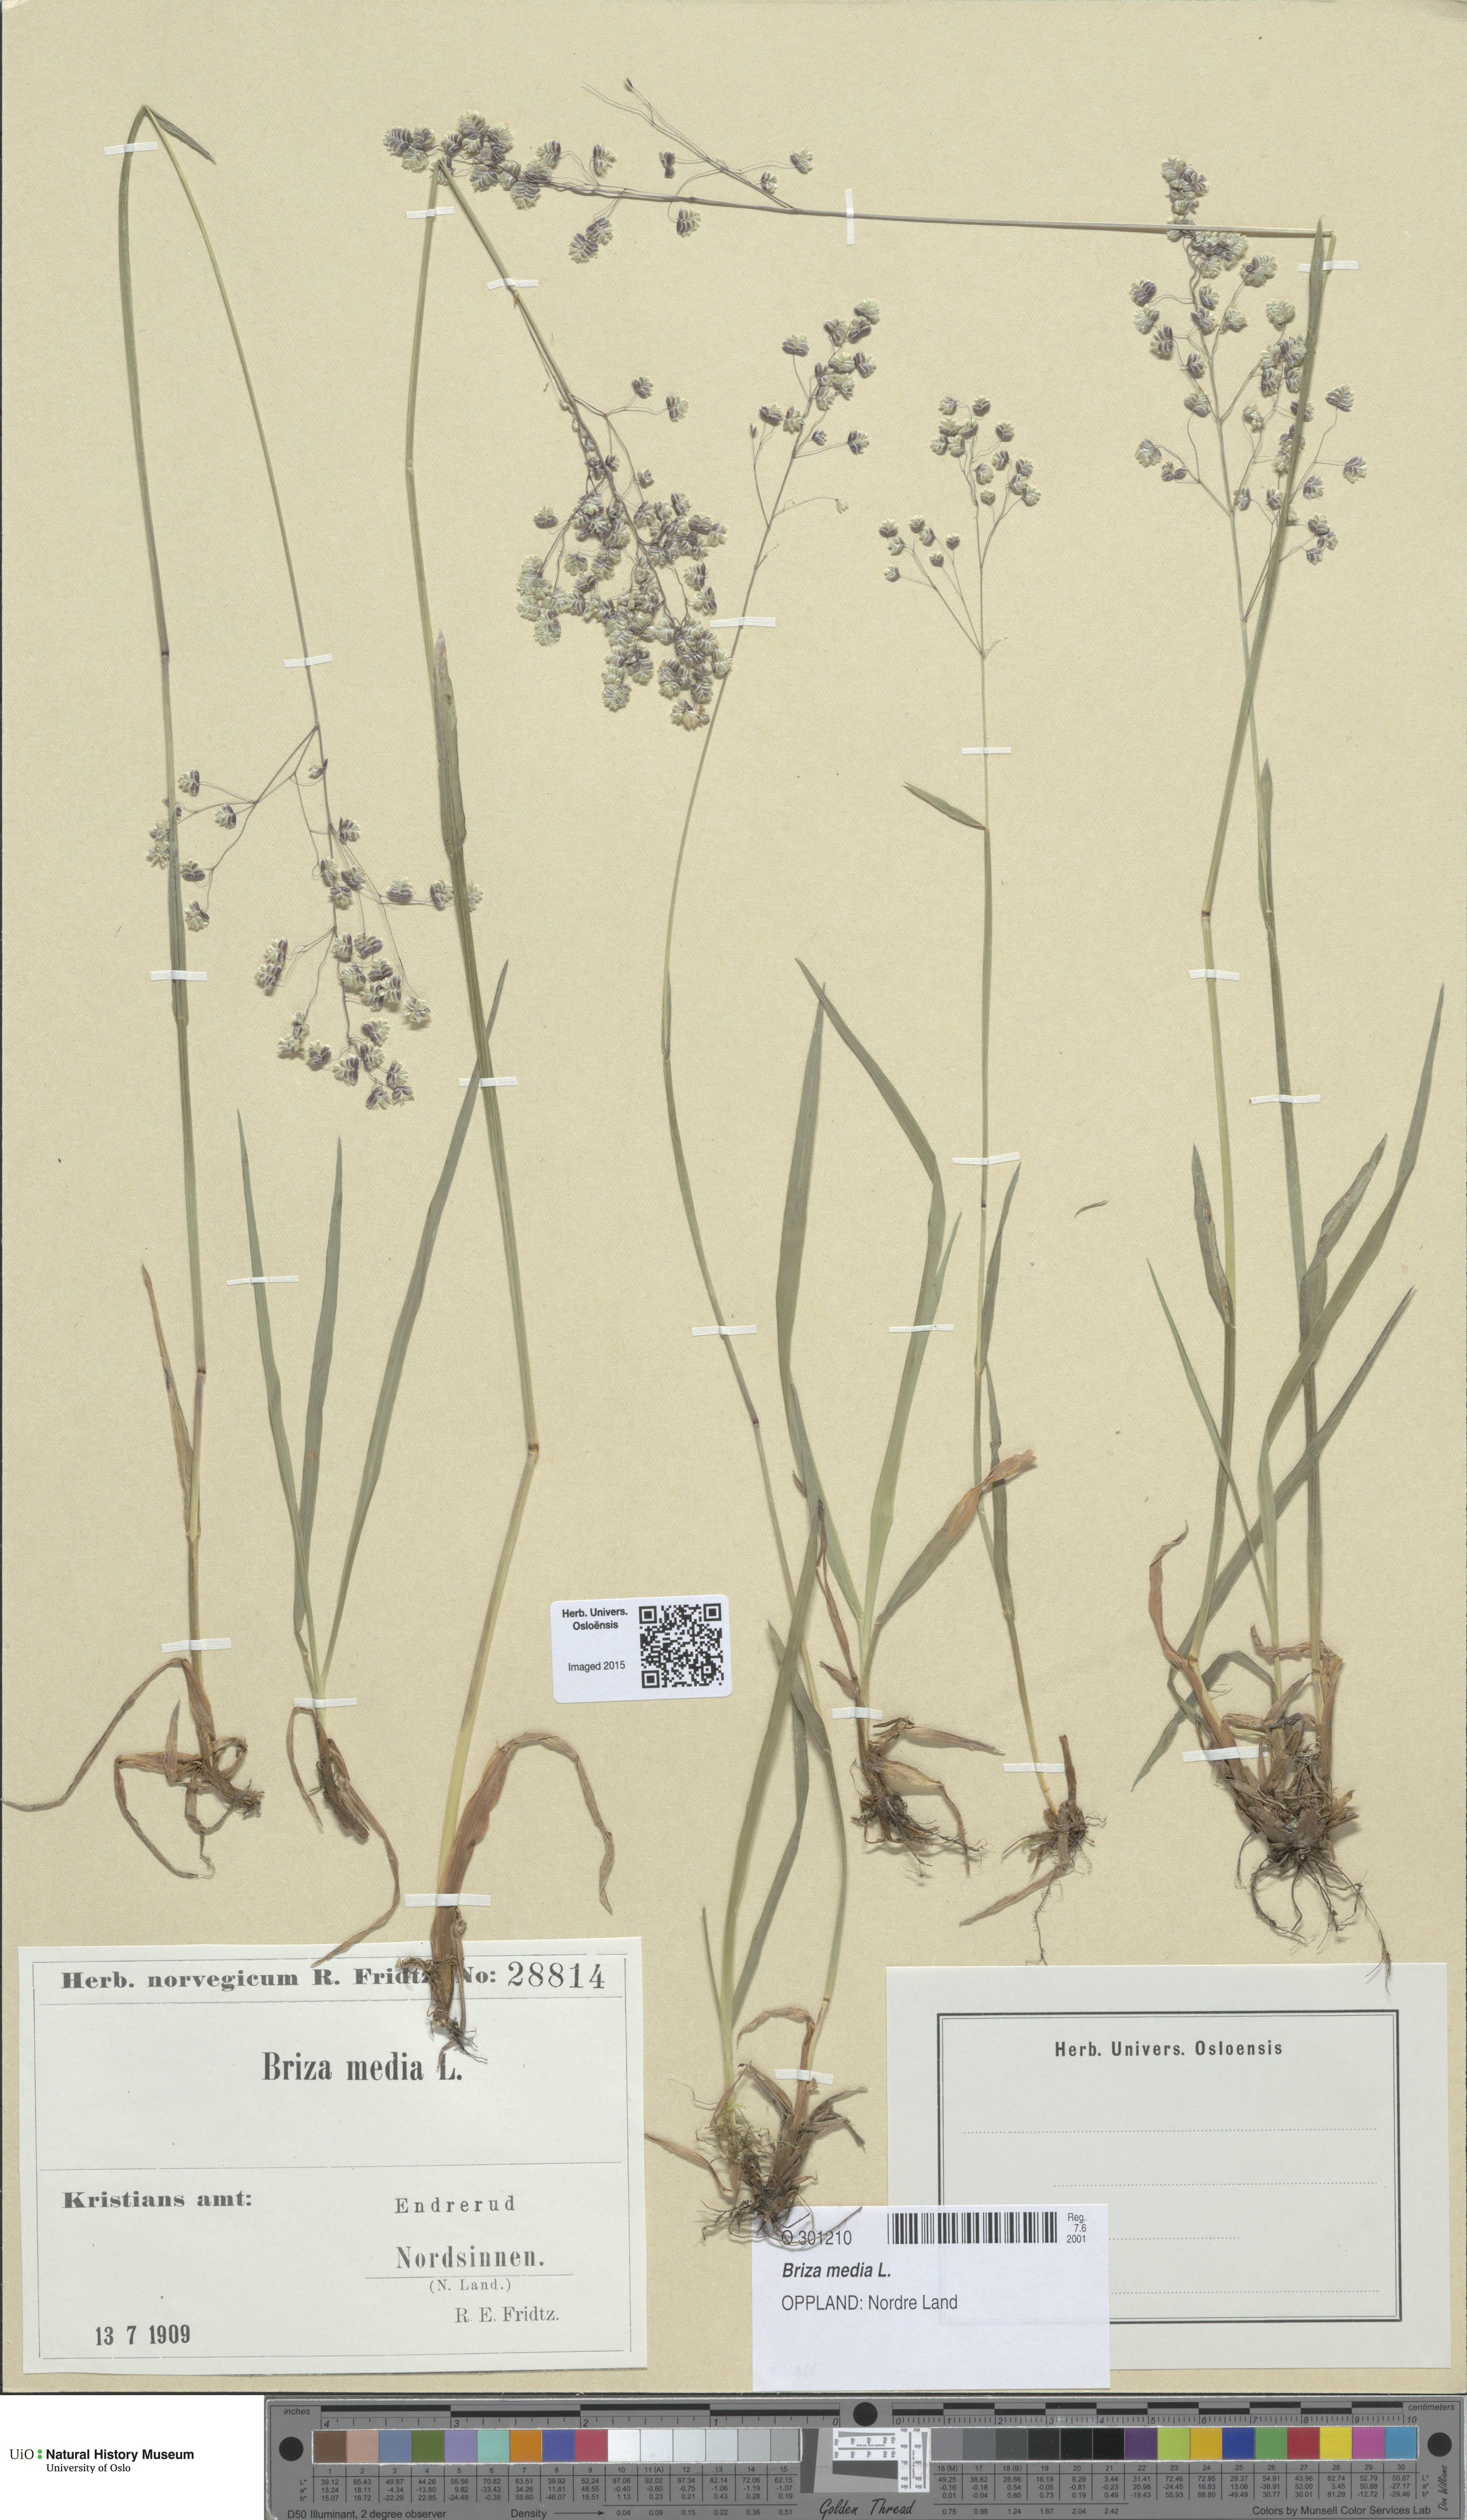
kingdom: Plantae
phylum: Tracheophyta
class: Liliopsida
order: Poales
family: Poaceae
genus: Briza
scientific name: Briza media
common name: Quaking grass
